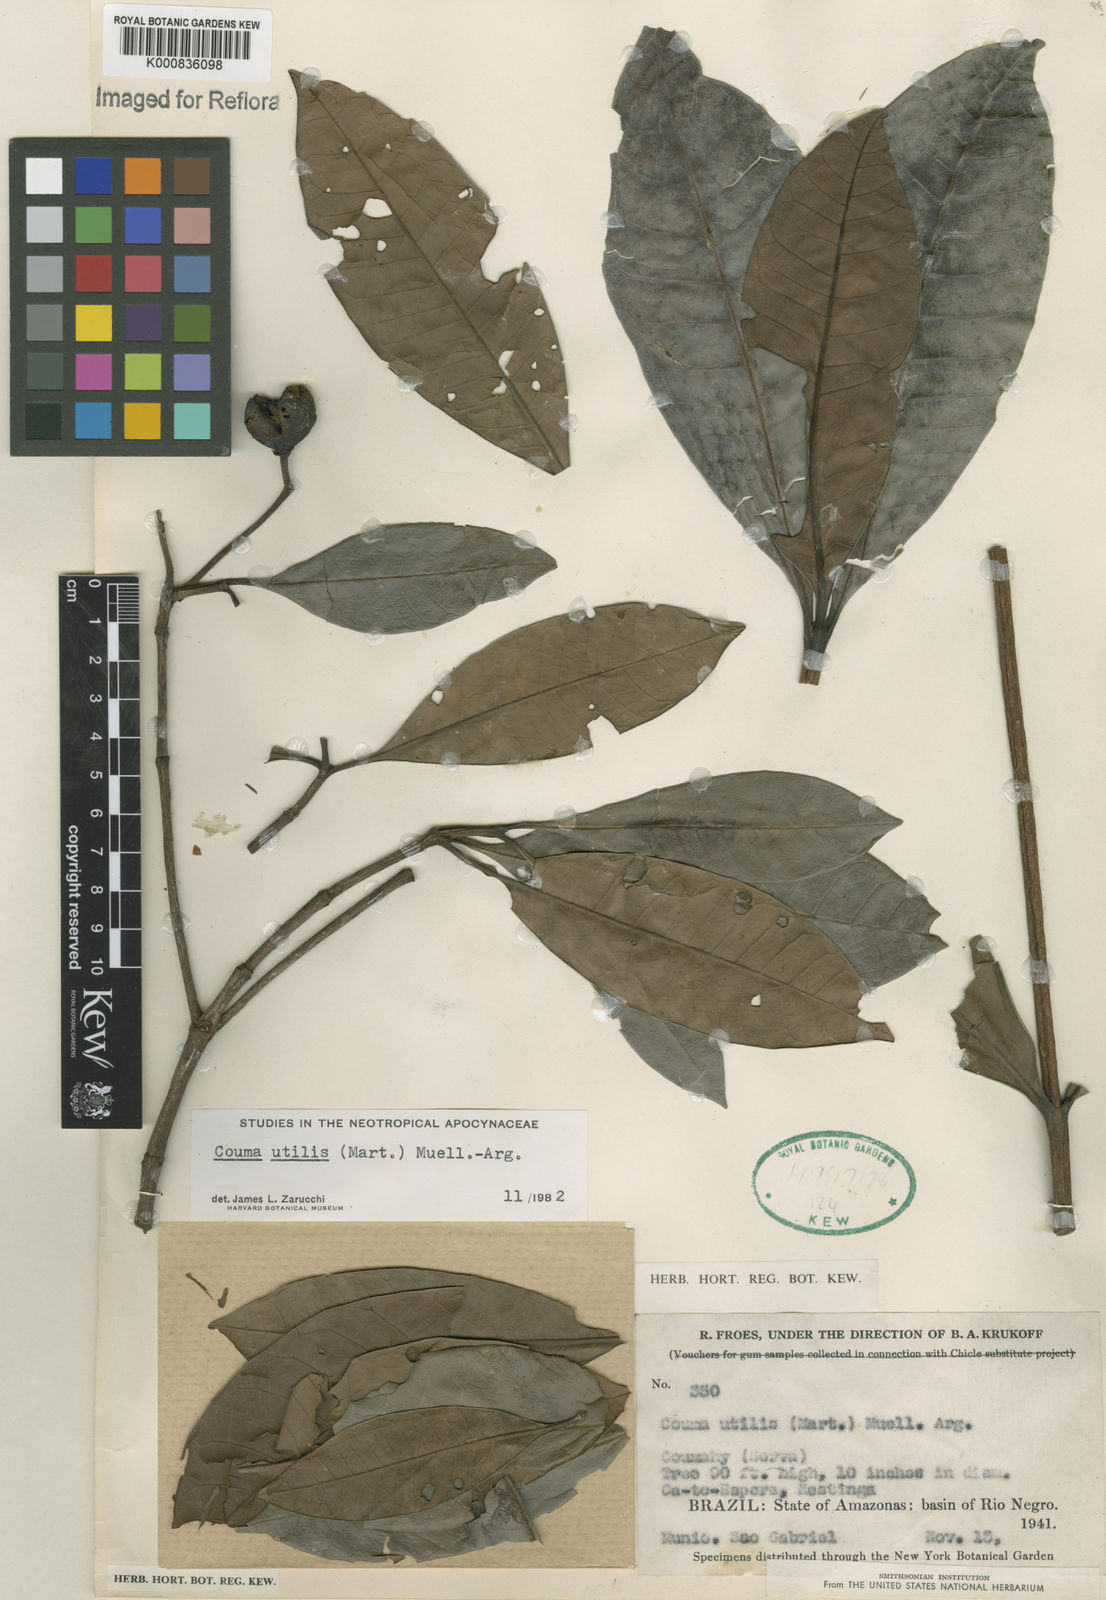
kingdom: Plantae
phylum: Tracheophyta
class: Magnoliopsida
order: Gentianales
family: Apocynaceae
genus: Couma
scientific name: Couma
